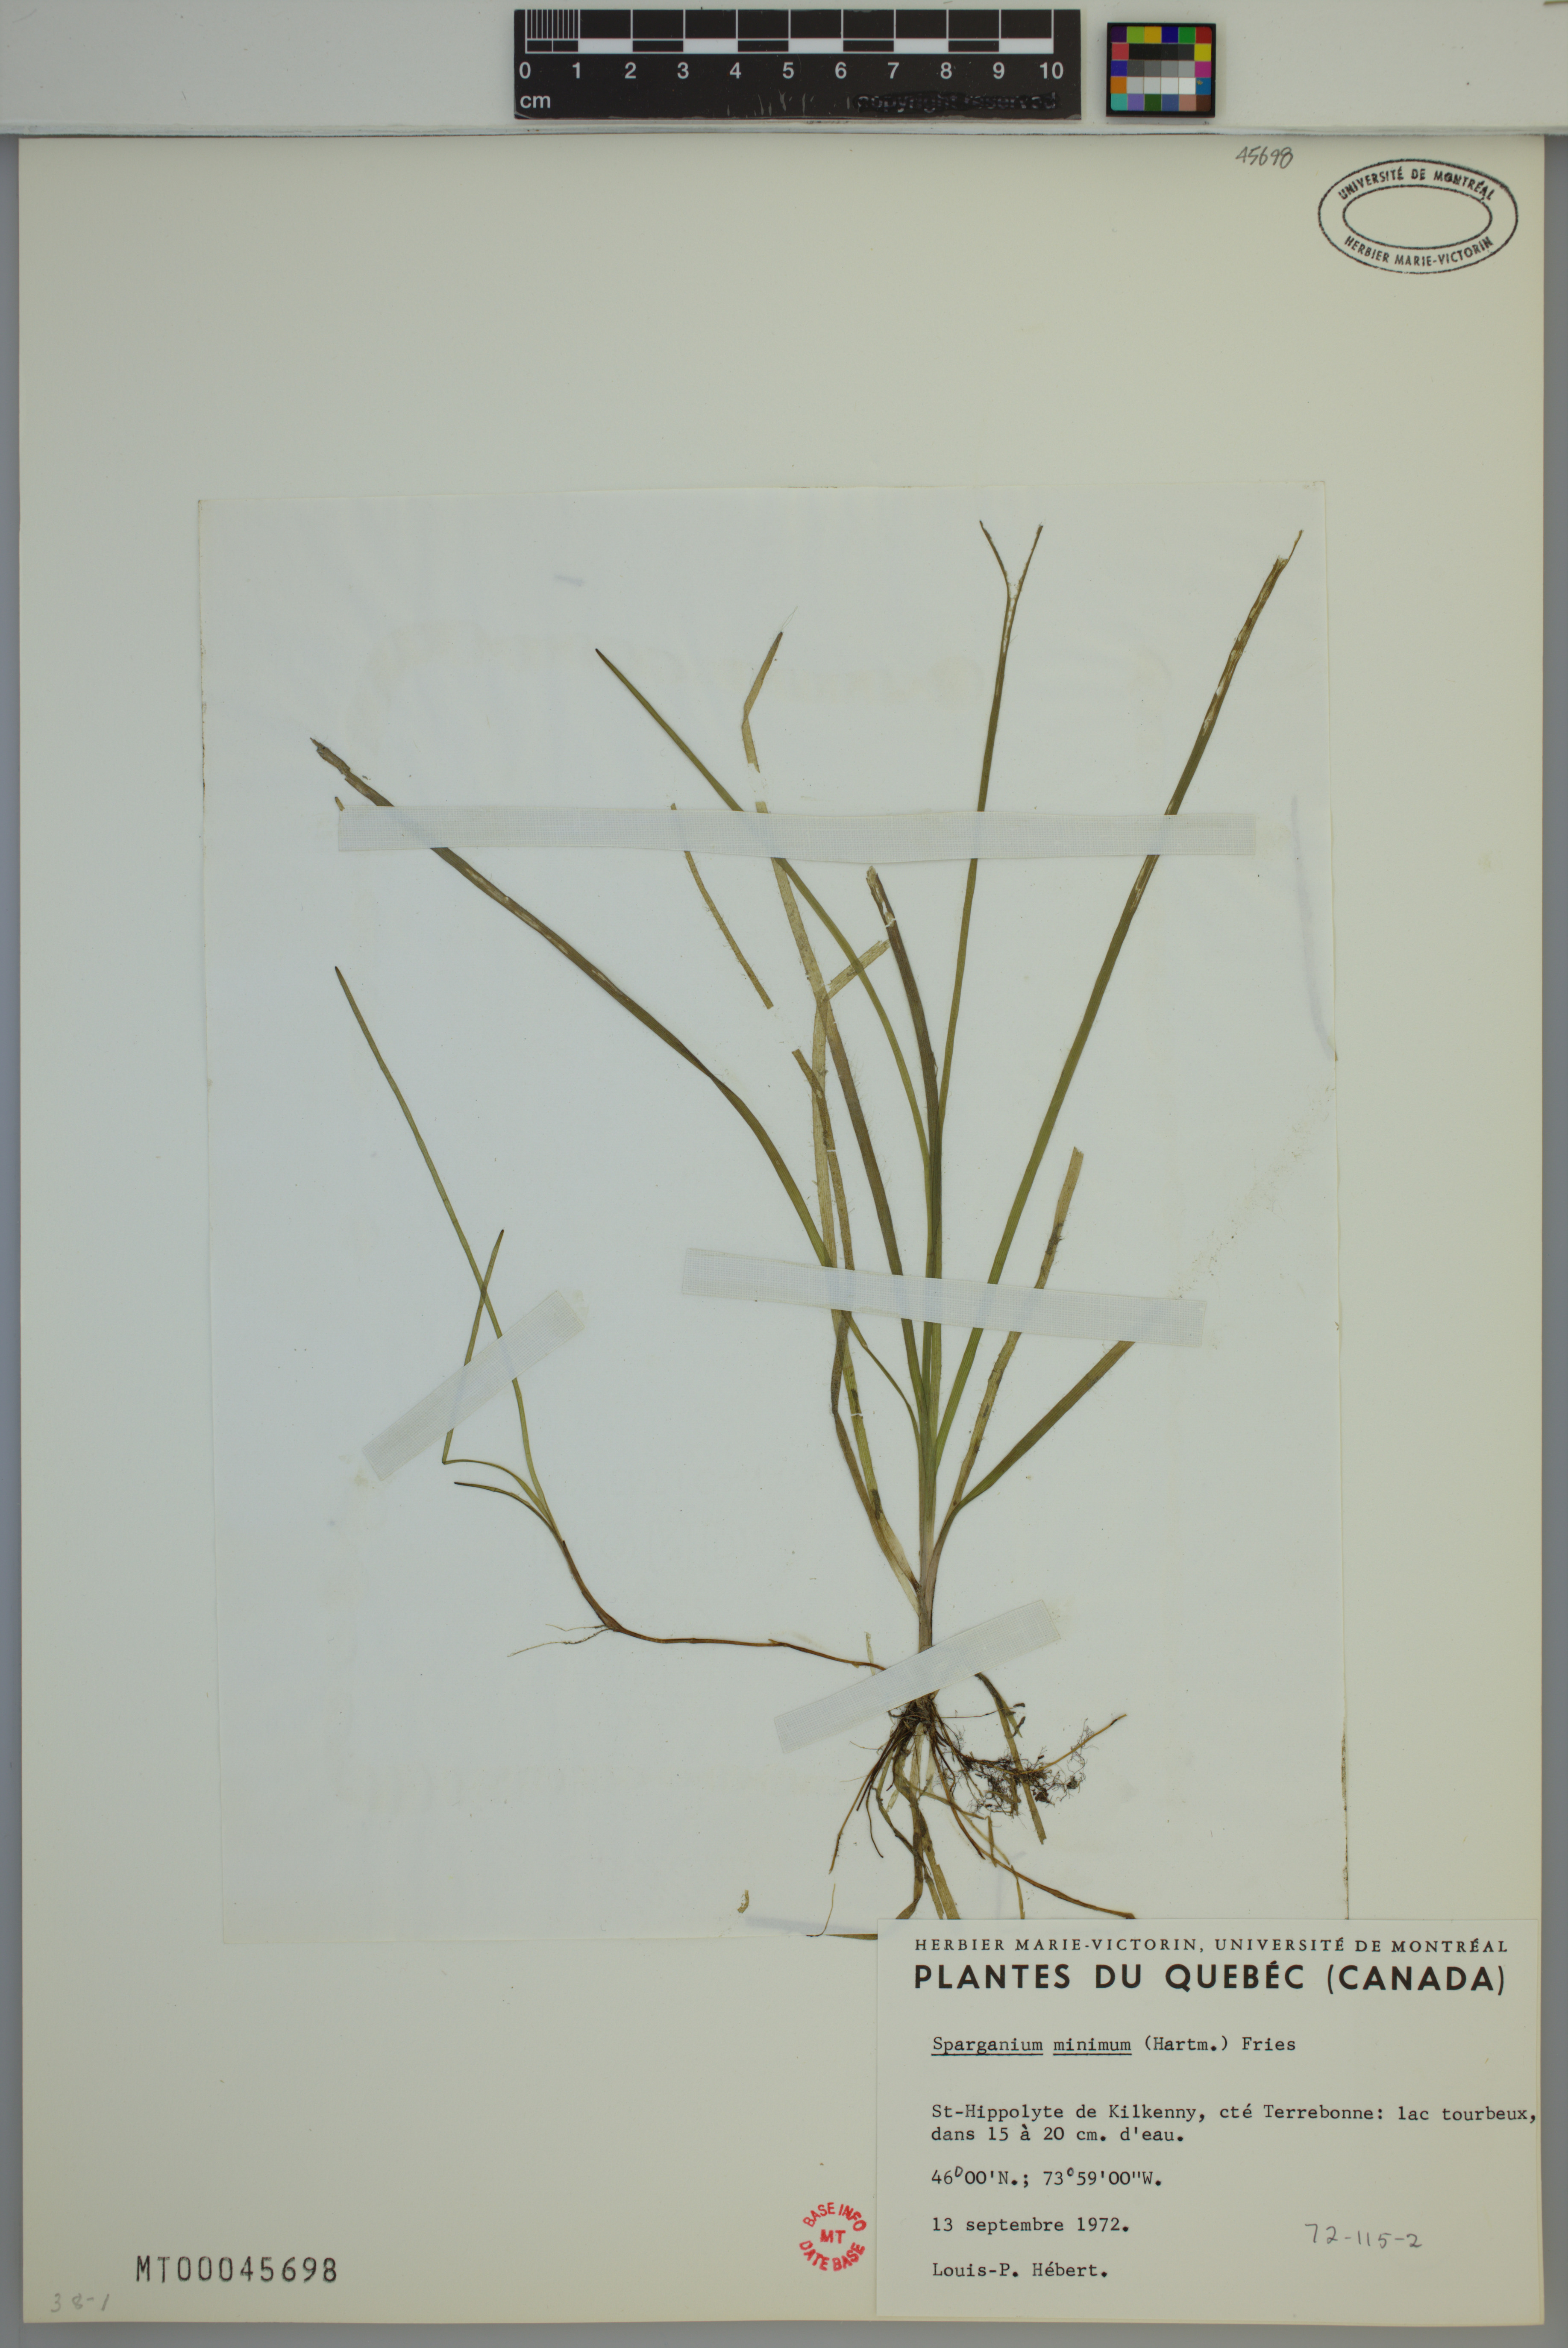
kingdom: Plantae
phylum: Tracheophyta
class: Liliopsida
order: Poales
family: Typhaceae
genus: Sparganium
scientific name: Sparganium natans
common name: Least bur-reed
